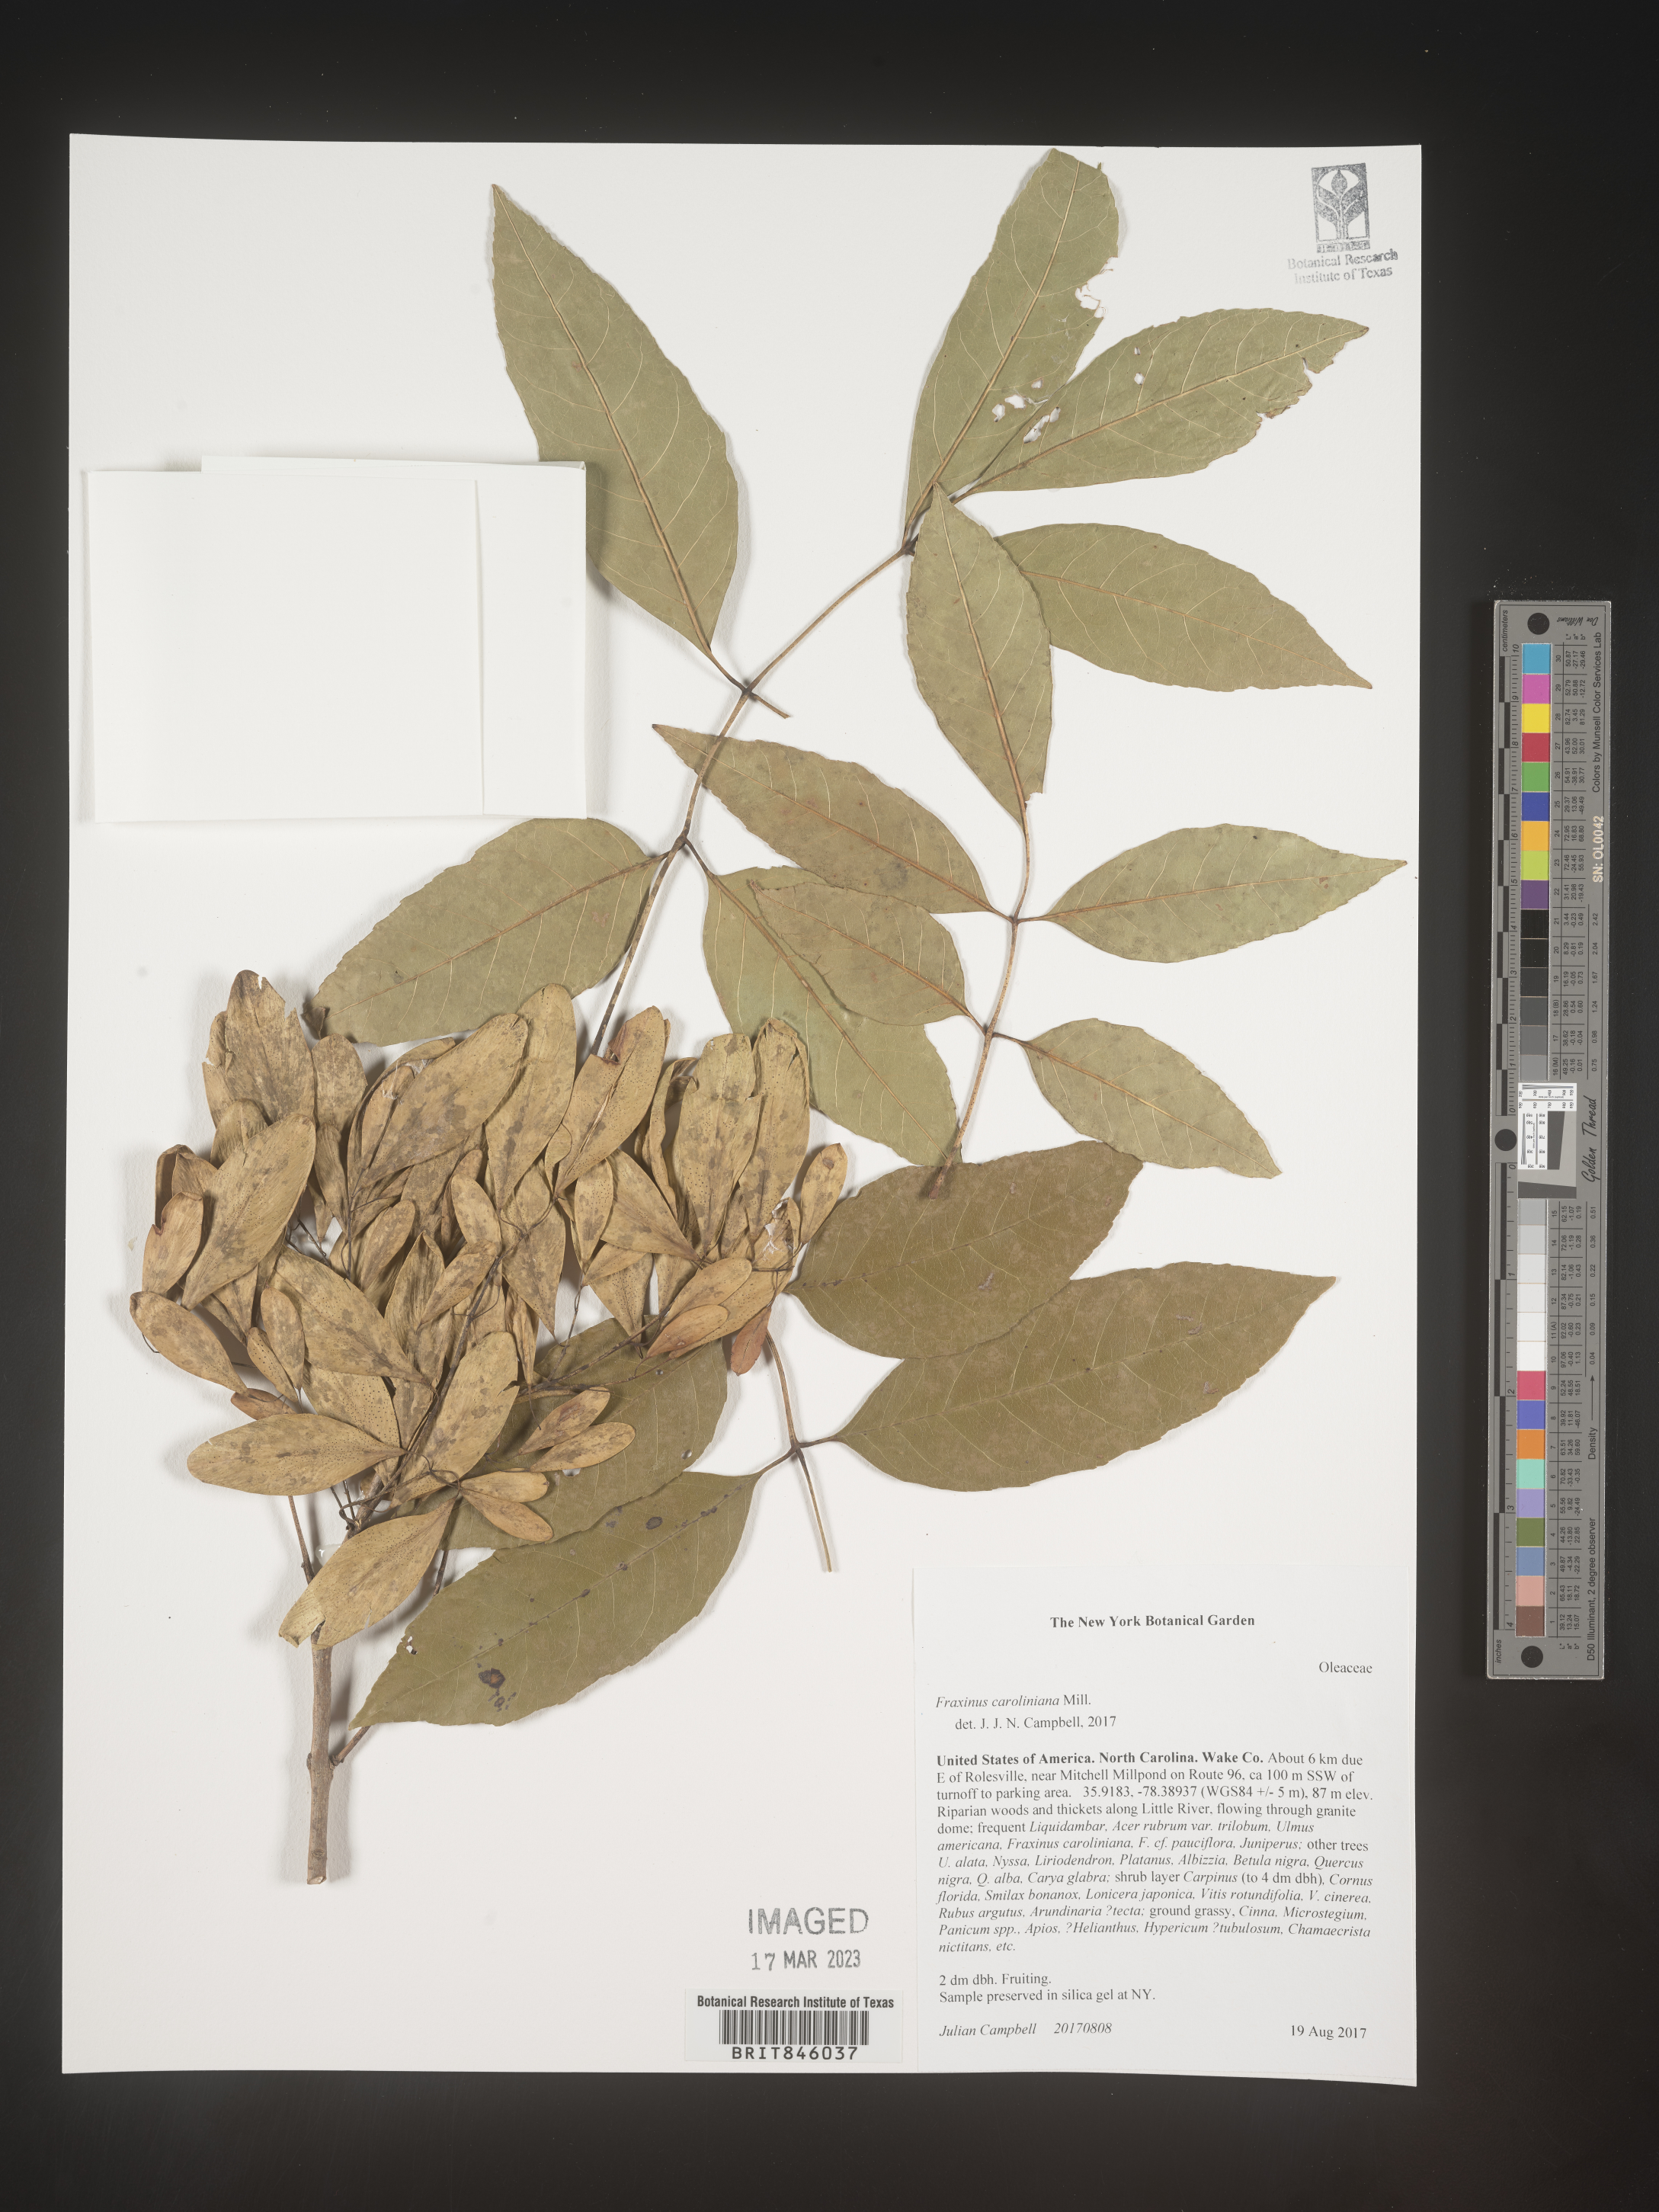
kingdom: Plantae
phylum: Tracheophyta
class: Magnoliopsida
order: Lamiales
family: Oleaceae
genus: Fraxinus
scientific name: Fraxinus caroliniana
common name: Carolina ash
